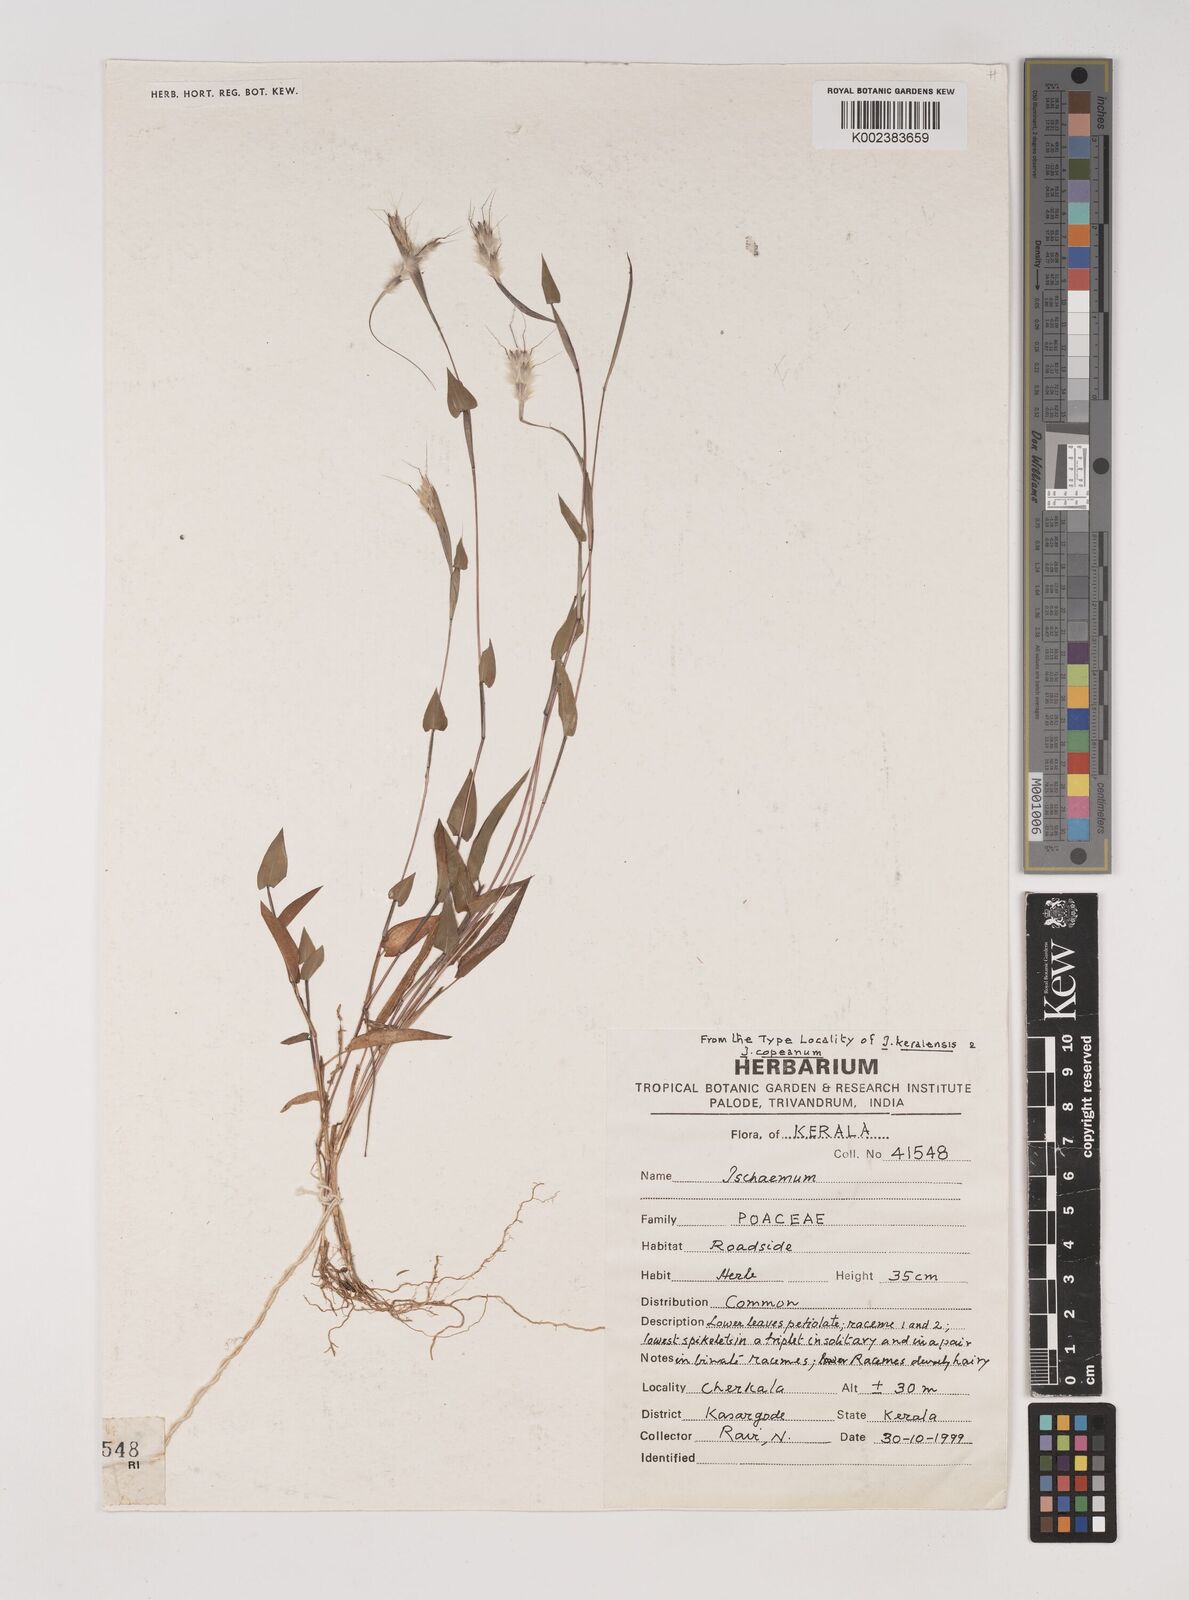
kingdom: Plantae
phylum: Tracheophyta
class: Liliopsida
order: Poales
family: Poaceae
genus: Ischaemum
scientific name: Ischaemum
